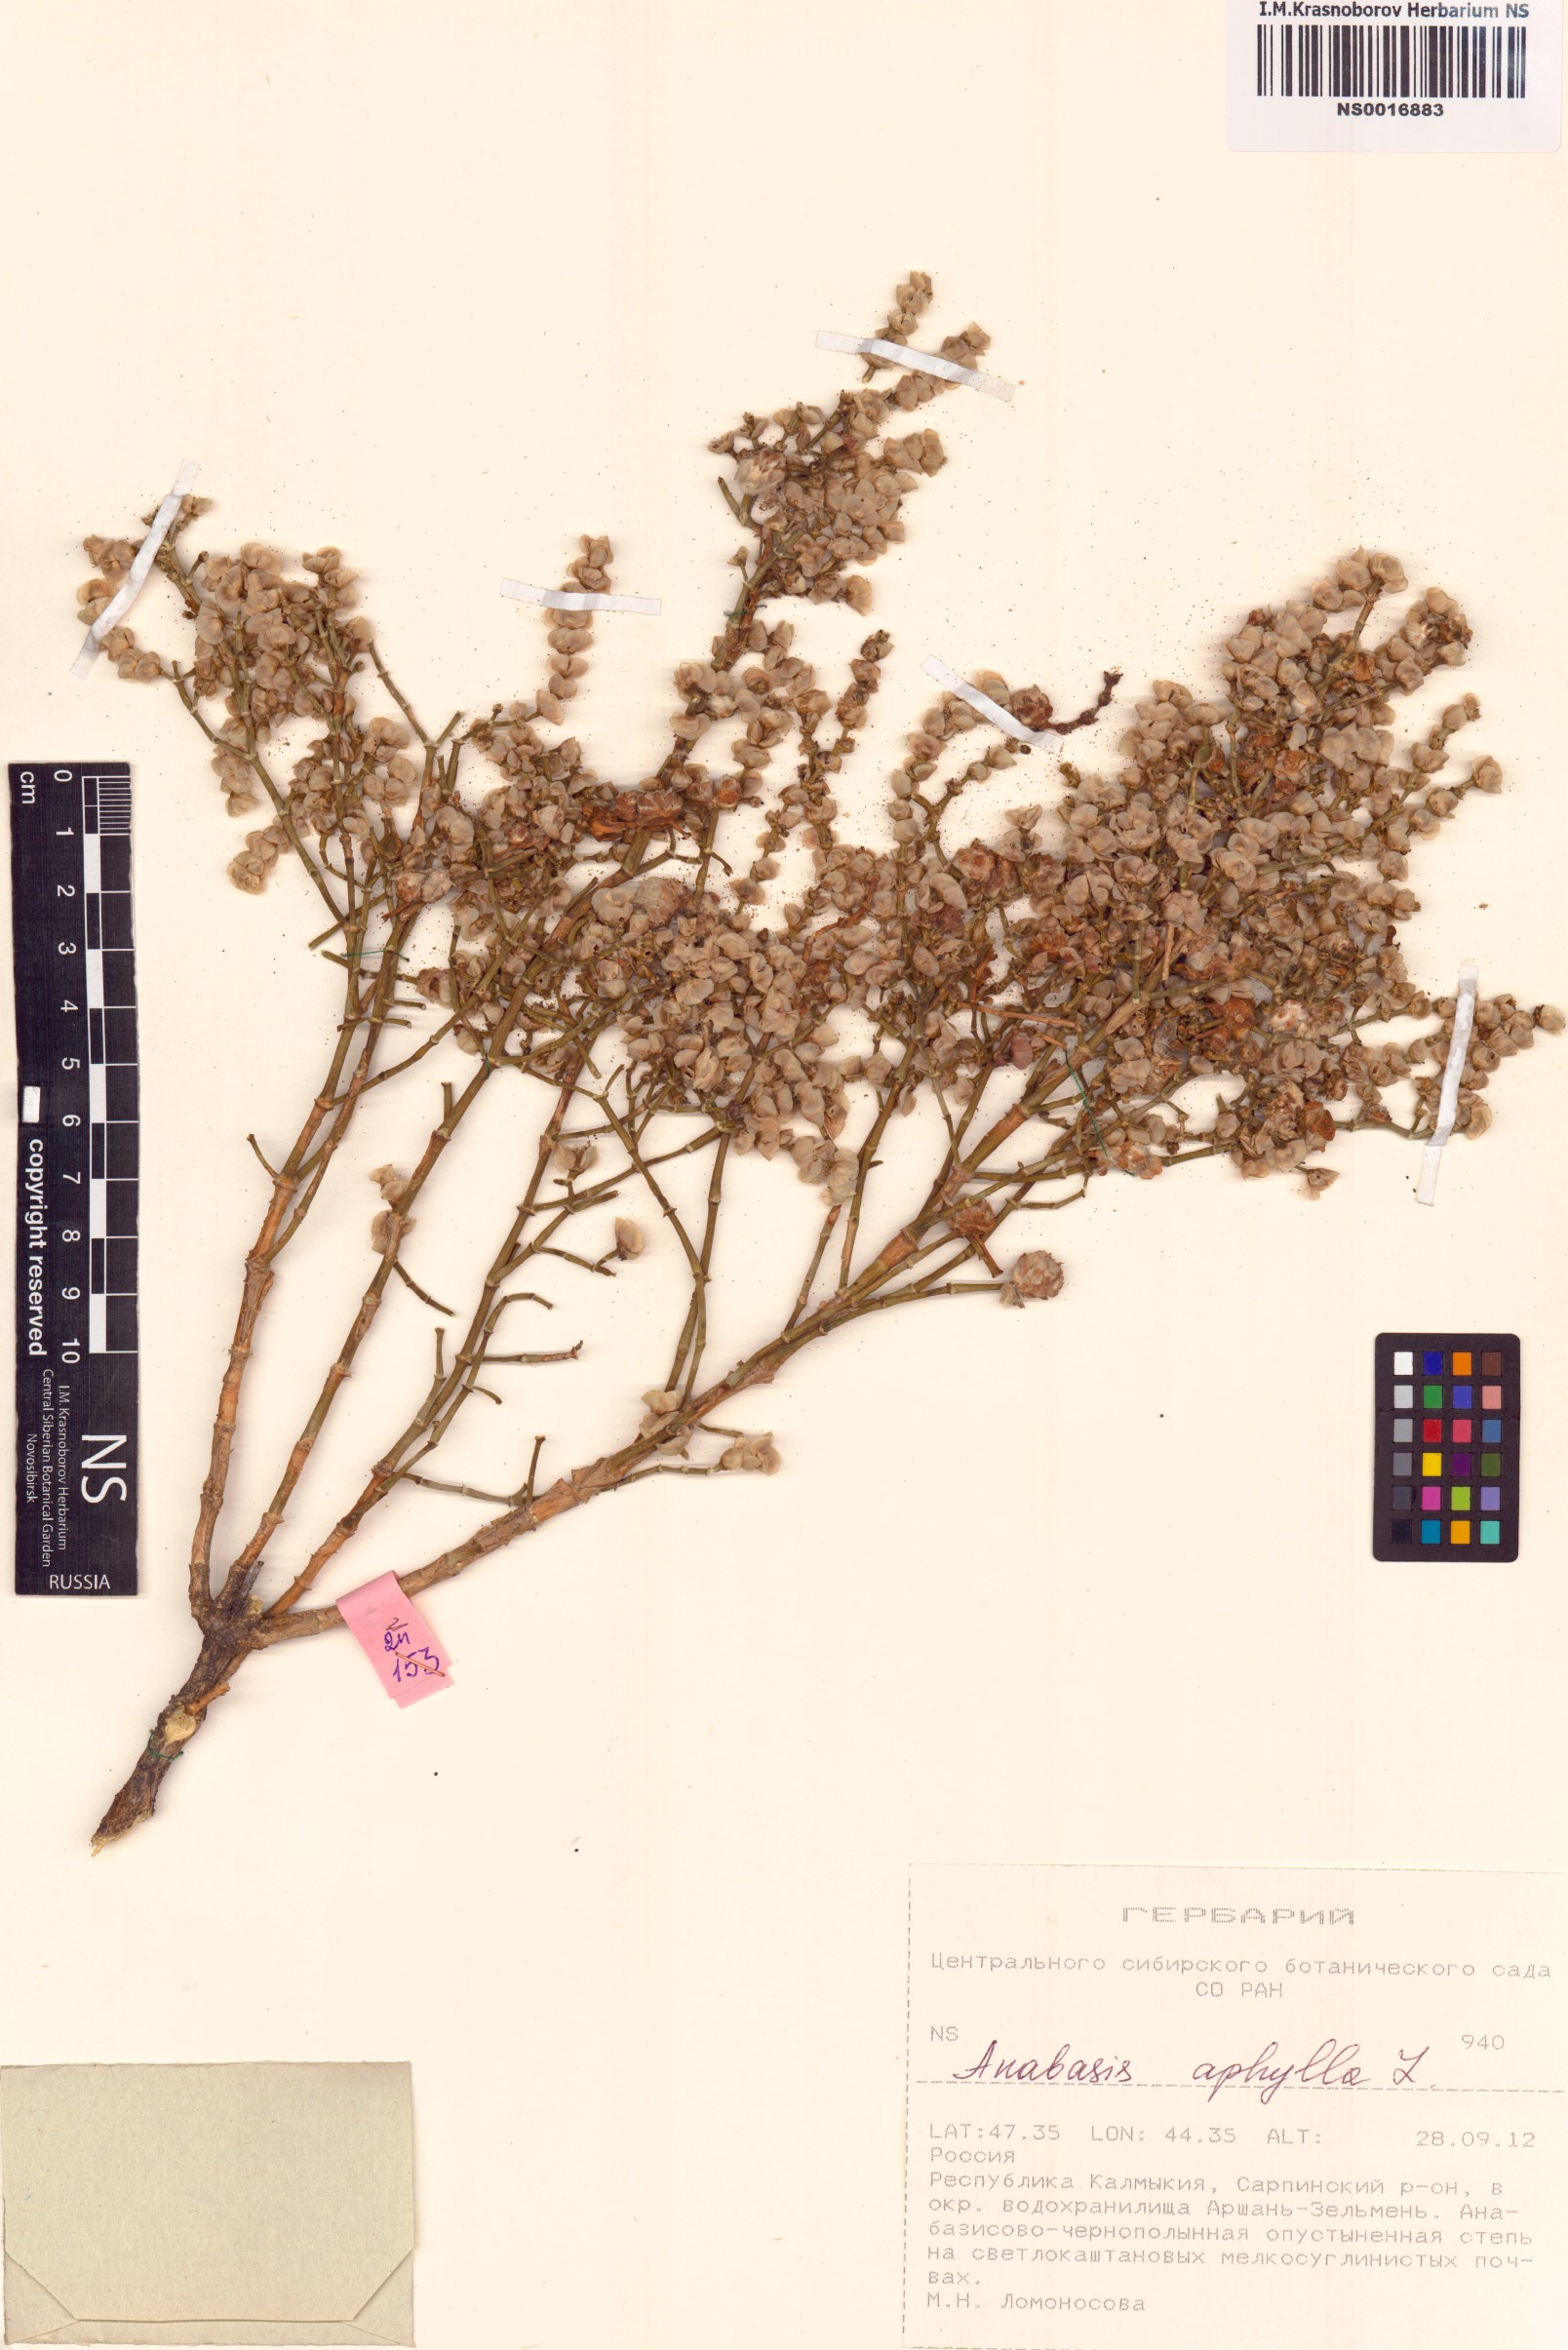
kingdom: Plantae
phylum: Tracheophyta
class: Magnoliopsida
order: Caryophyllales
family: Amaranthaceae
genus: Anabasis
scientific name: Anabasis aphylla
